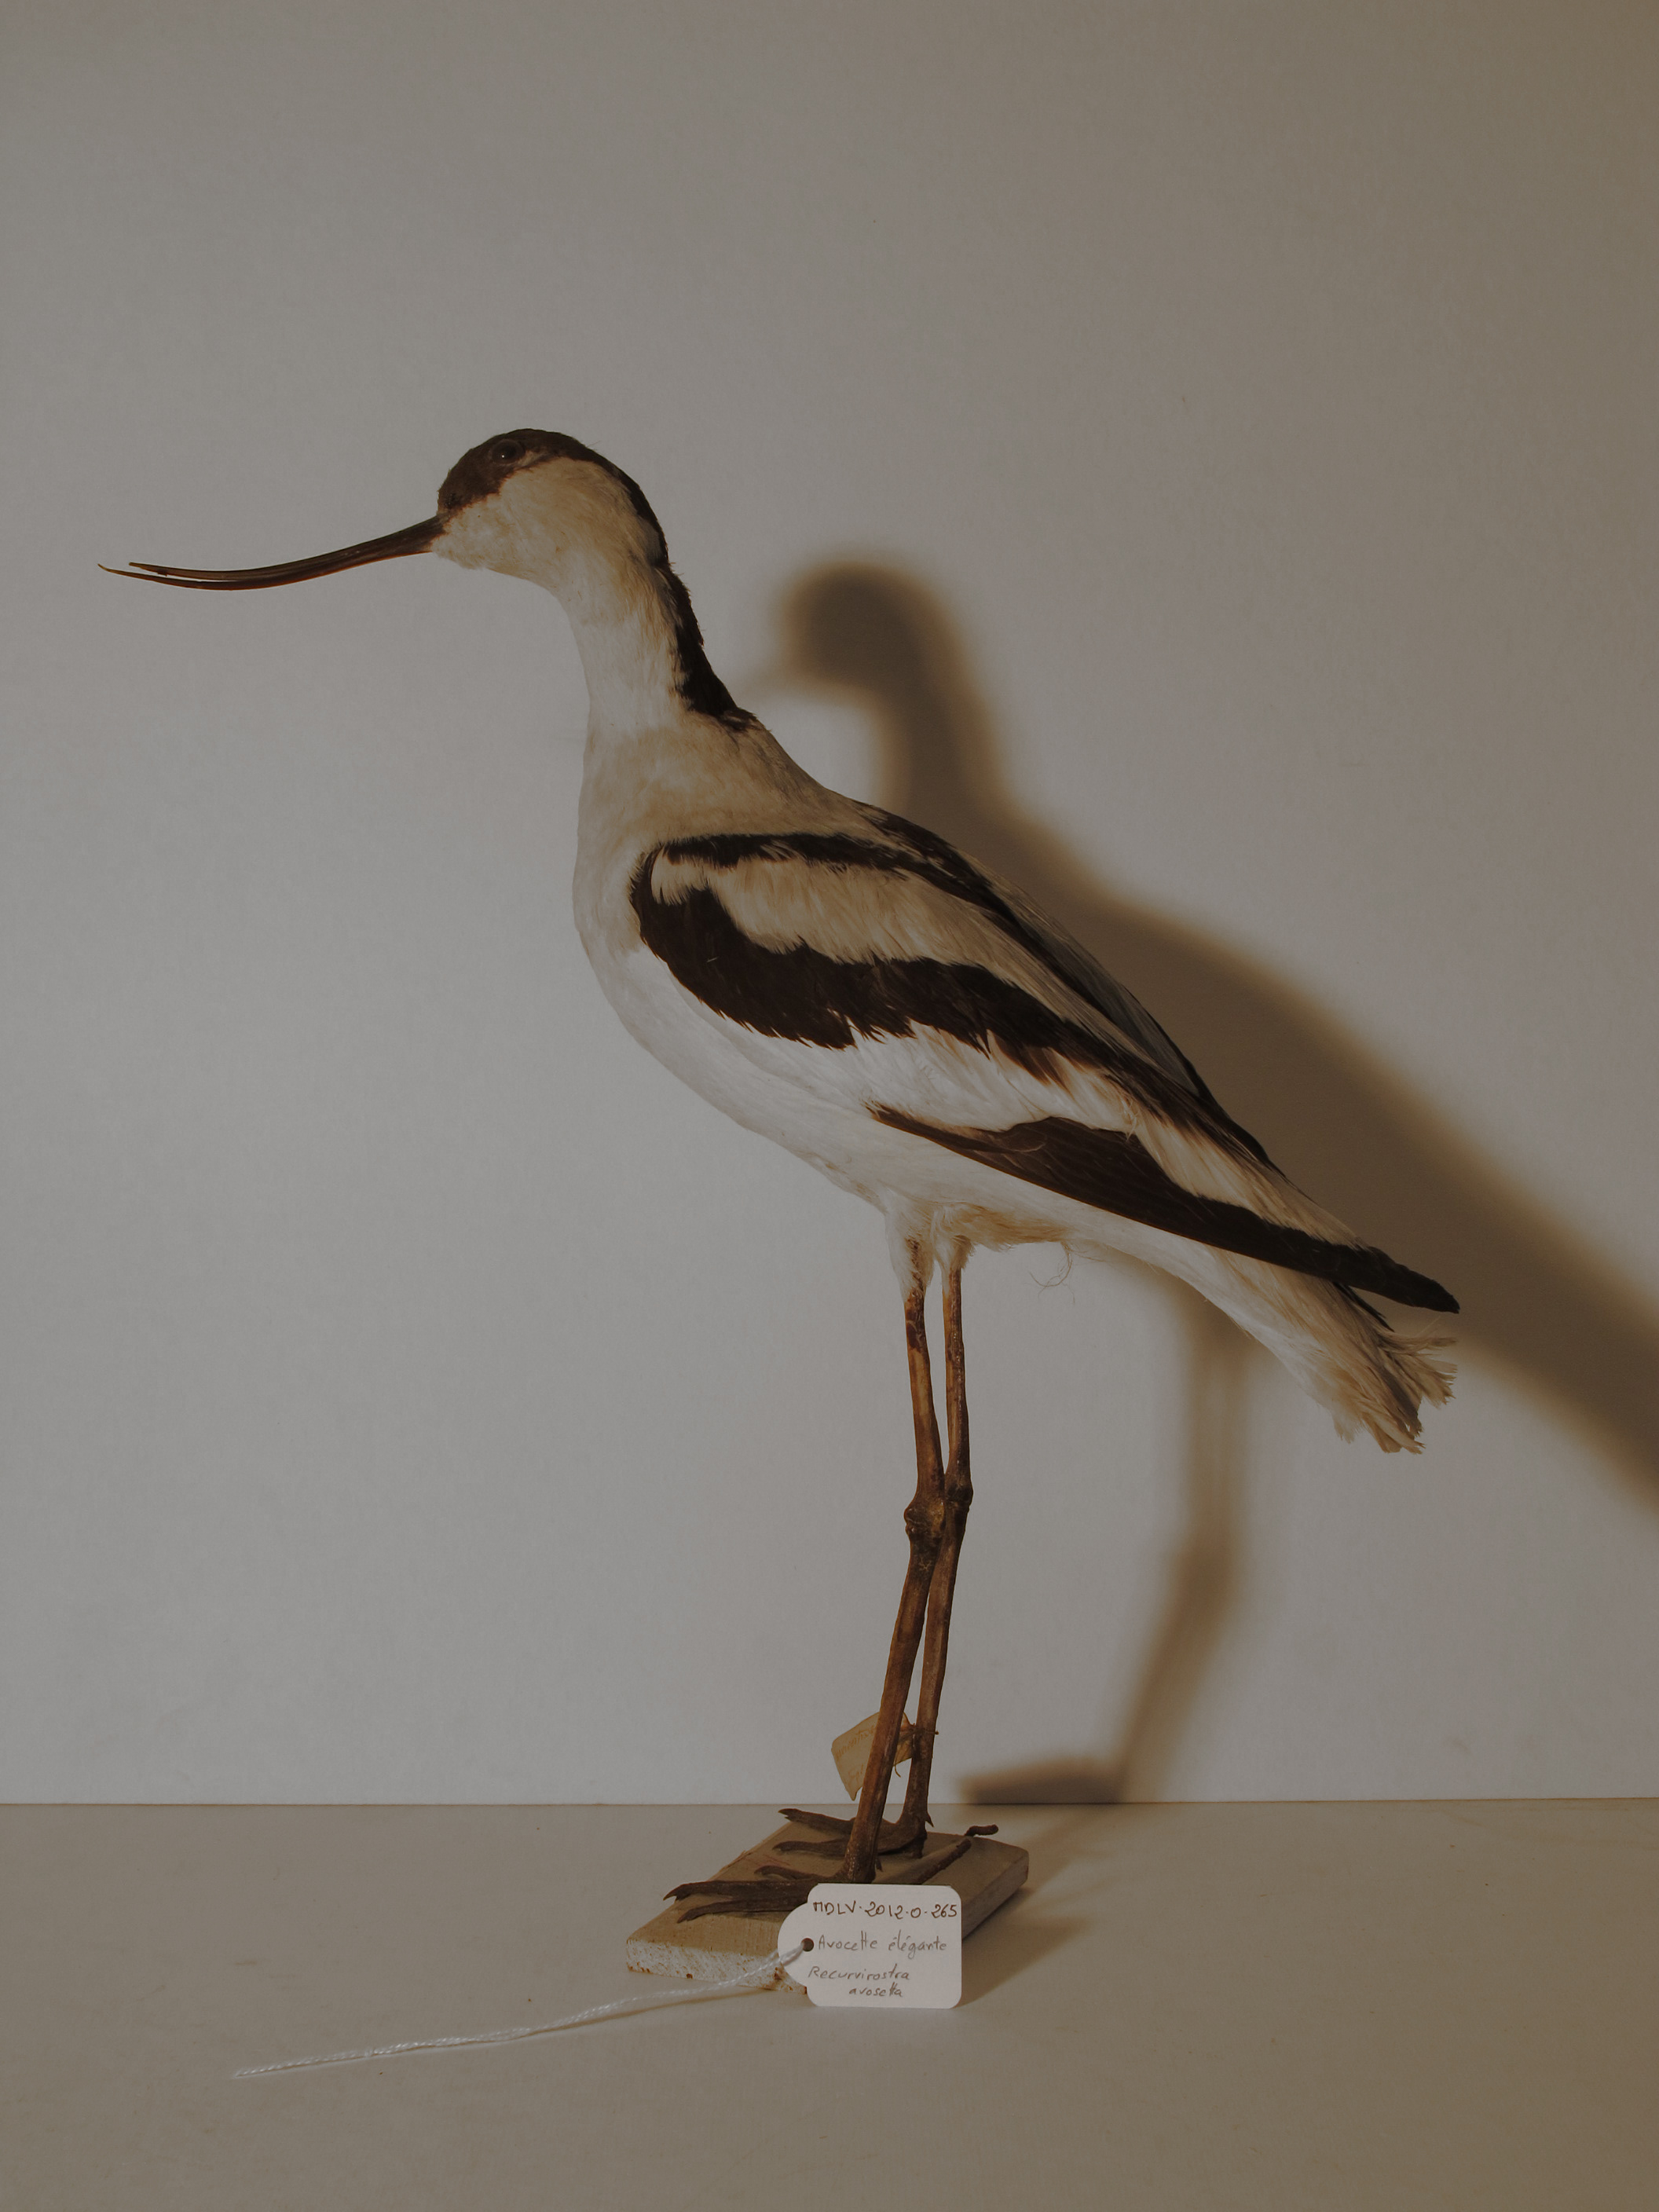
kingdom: Animalia
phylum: Chordata
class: Aves
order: Charadriiformes
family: Recurvirostridae
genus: Recurvirostra
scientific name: Recurvirostra avosetta
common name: Pied Avocet
